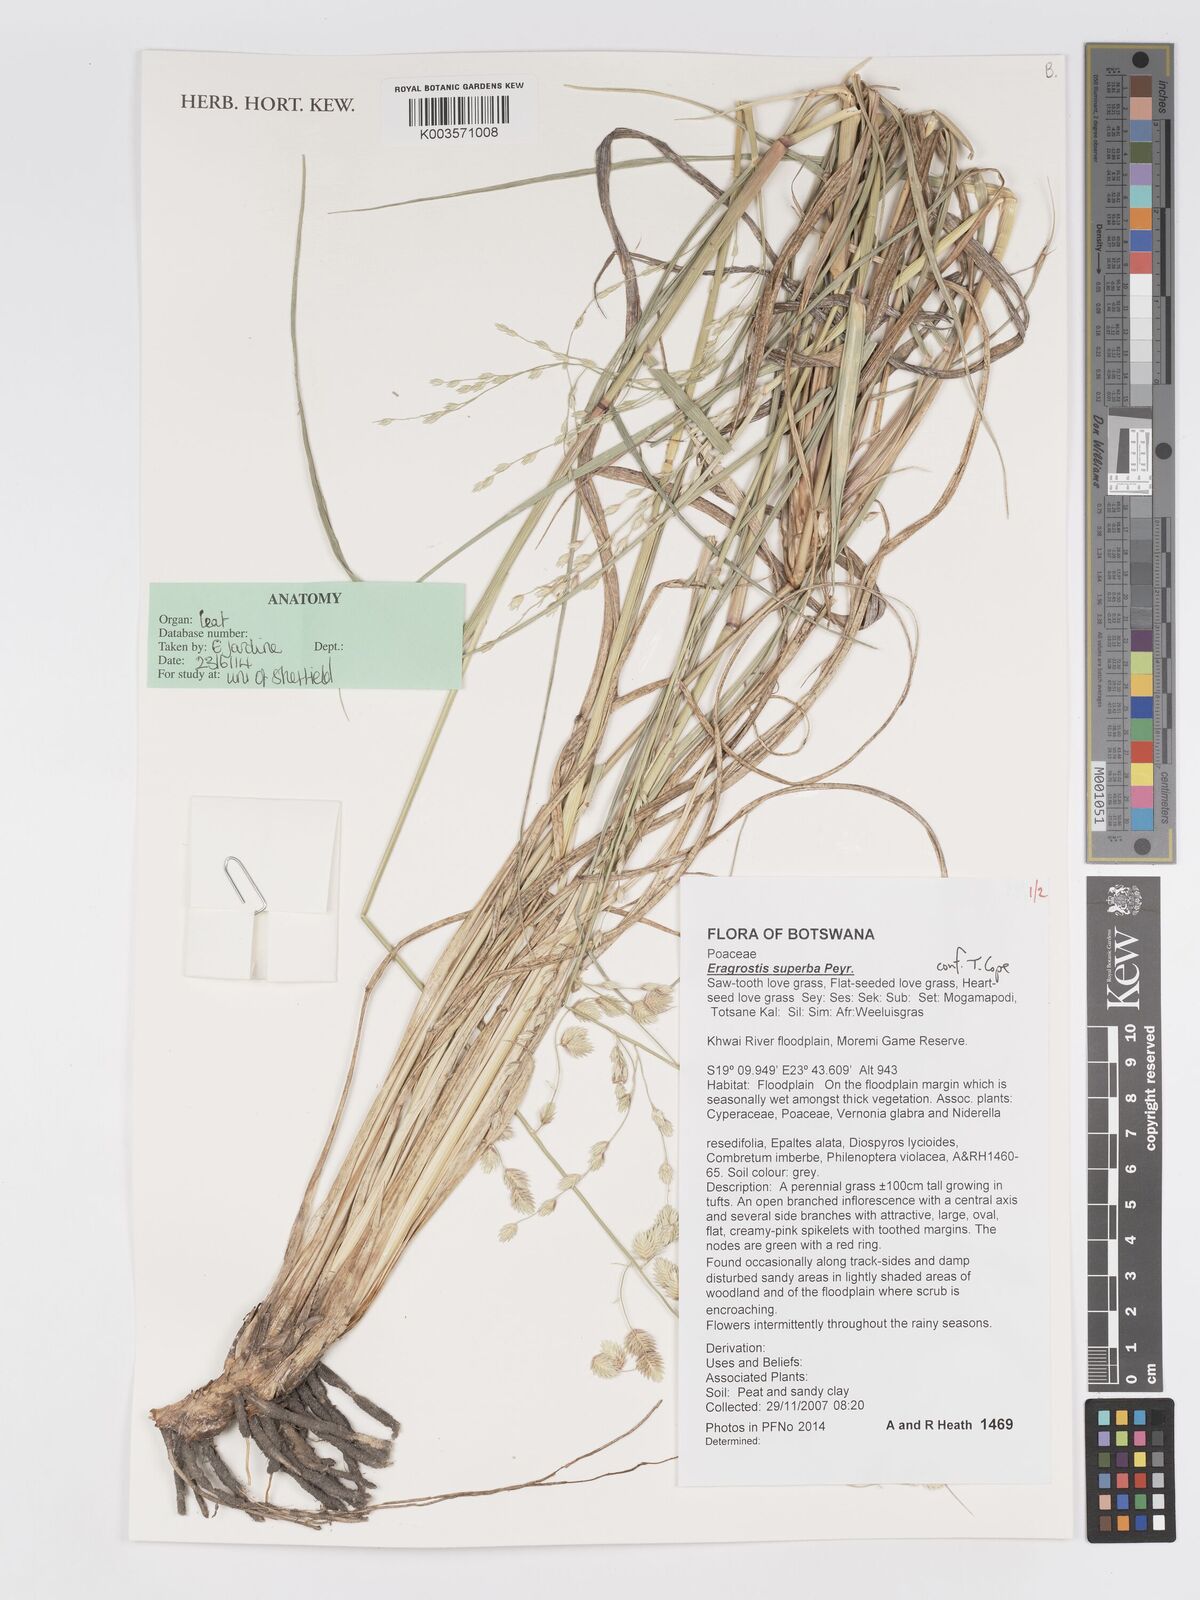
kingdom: Plantae
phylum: Tracheophyta
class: Liliopsida
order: Poales
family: Poaceae
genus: Eragrostis
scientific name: Eragrostis superba
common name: Wilman lovegrass
